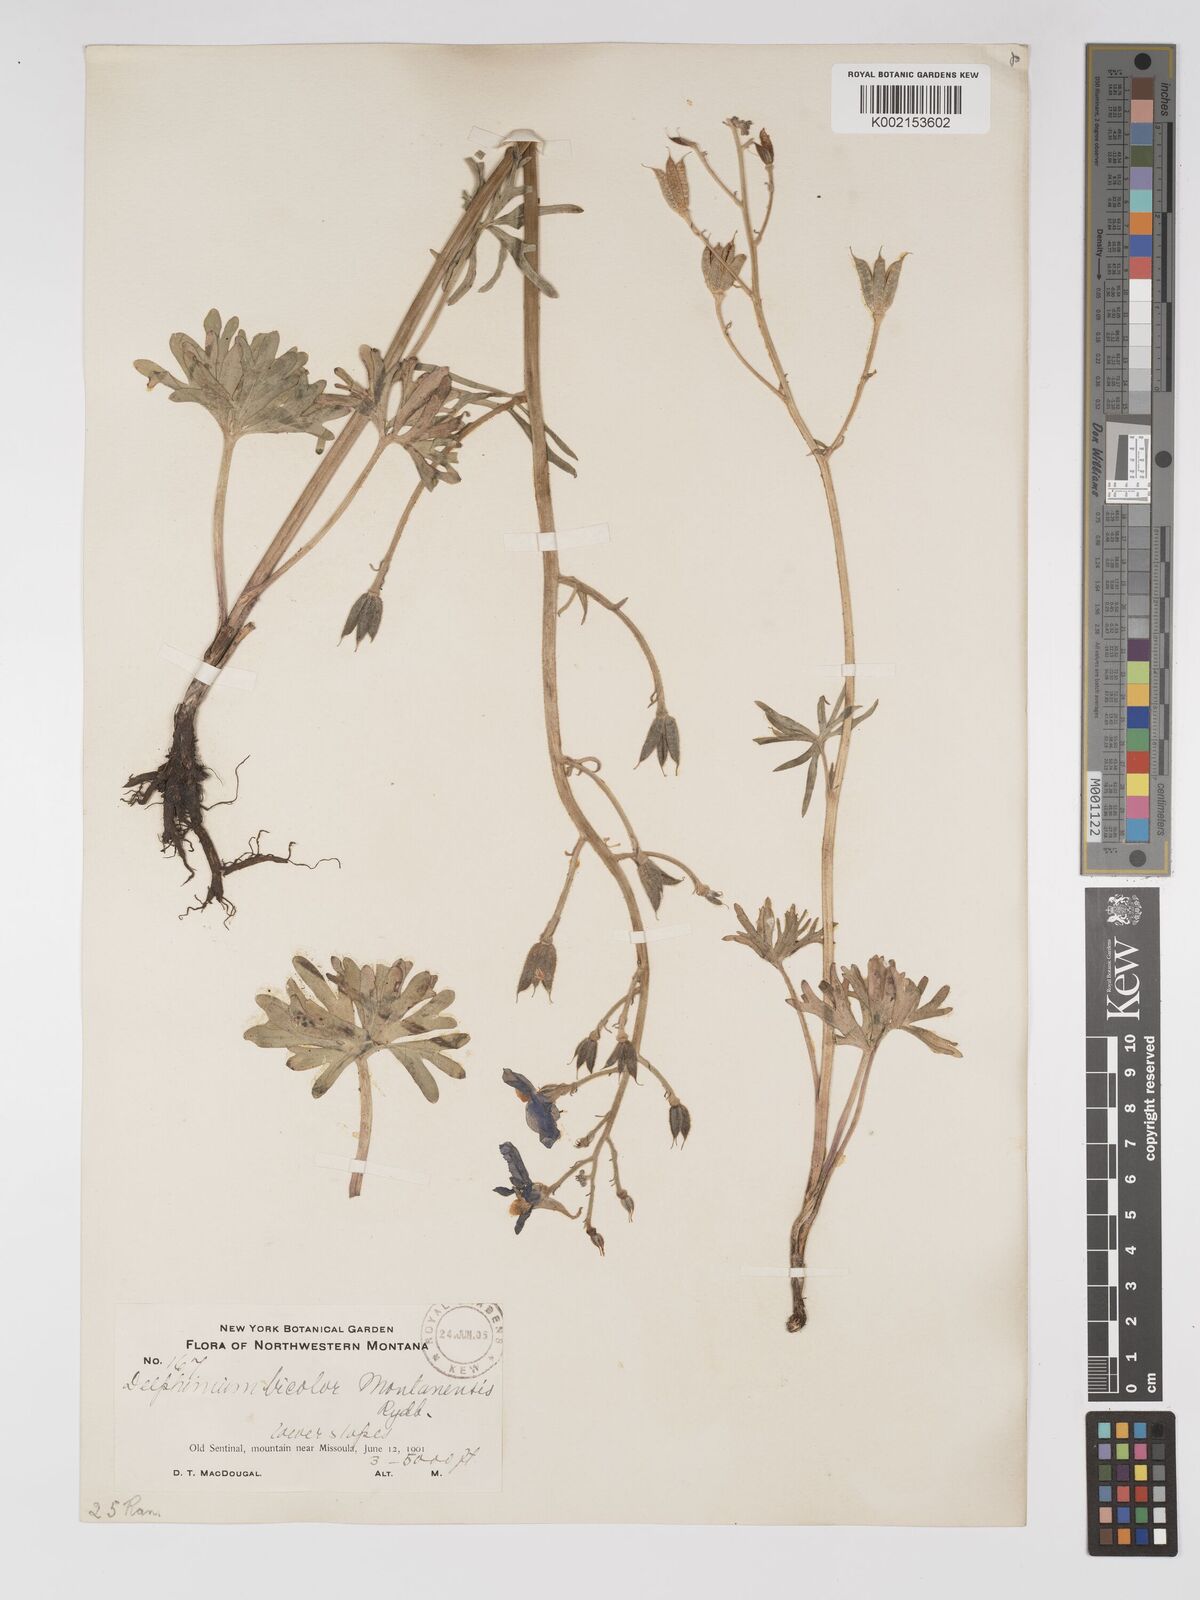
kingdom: Plantae
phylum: Tracheophyta
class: Magnoliopsida
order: Ranunculales
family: Ranunculaceae
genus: Delphinium
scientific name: Delphinium bicolor
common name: Low larkspur
